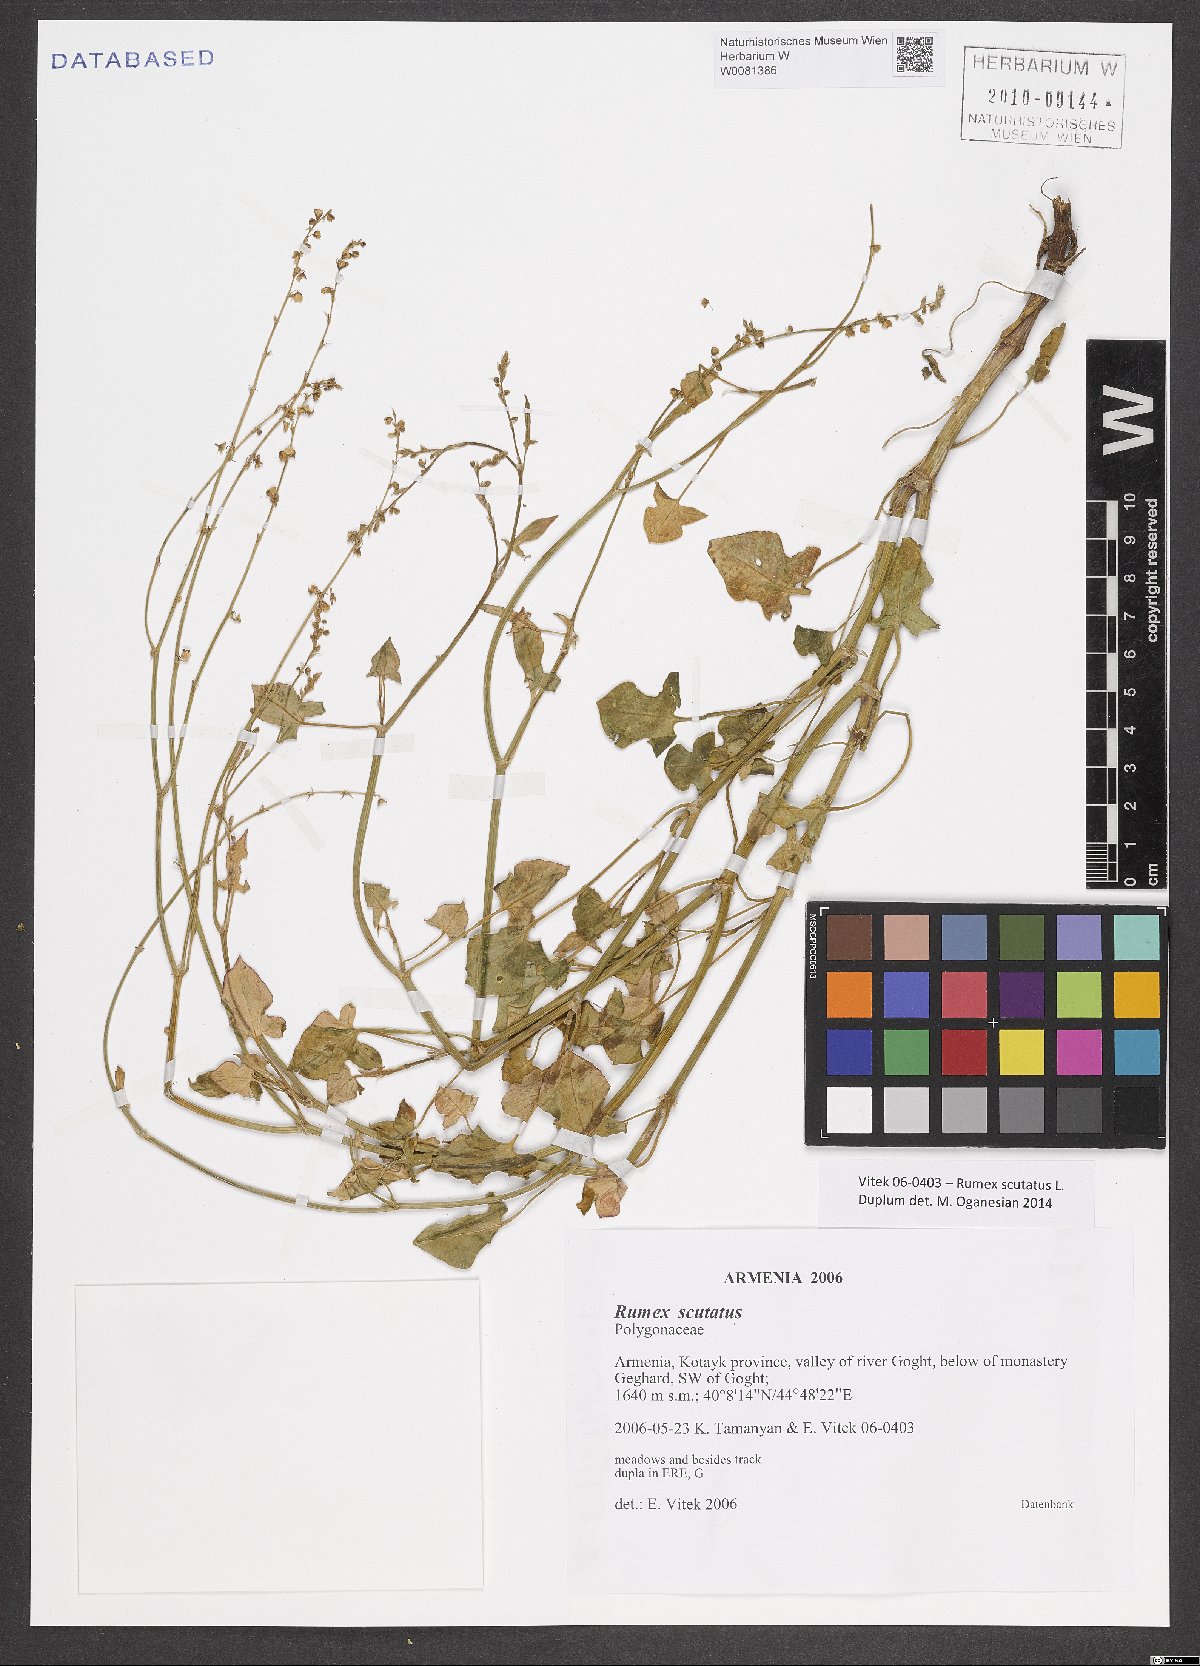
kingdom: Plantae
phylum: Tracheophyta
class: Magnoliopsida
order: Caryophyllales
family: Polygonaceae
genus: Rumex
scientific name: Rumex scutatus
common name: French sorrel
